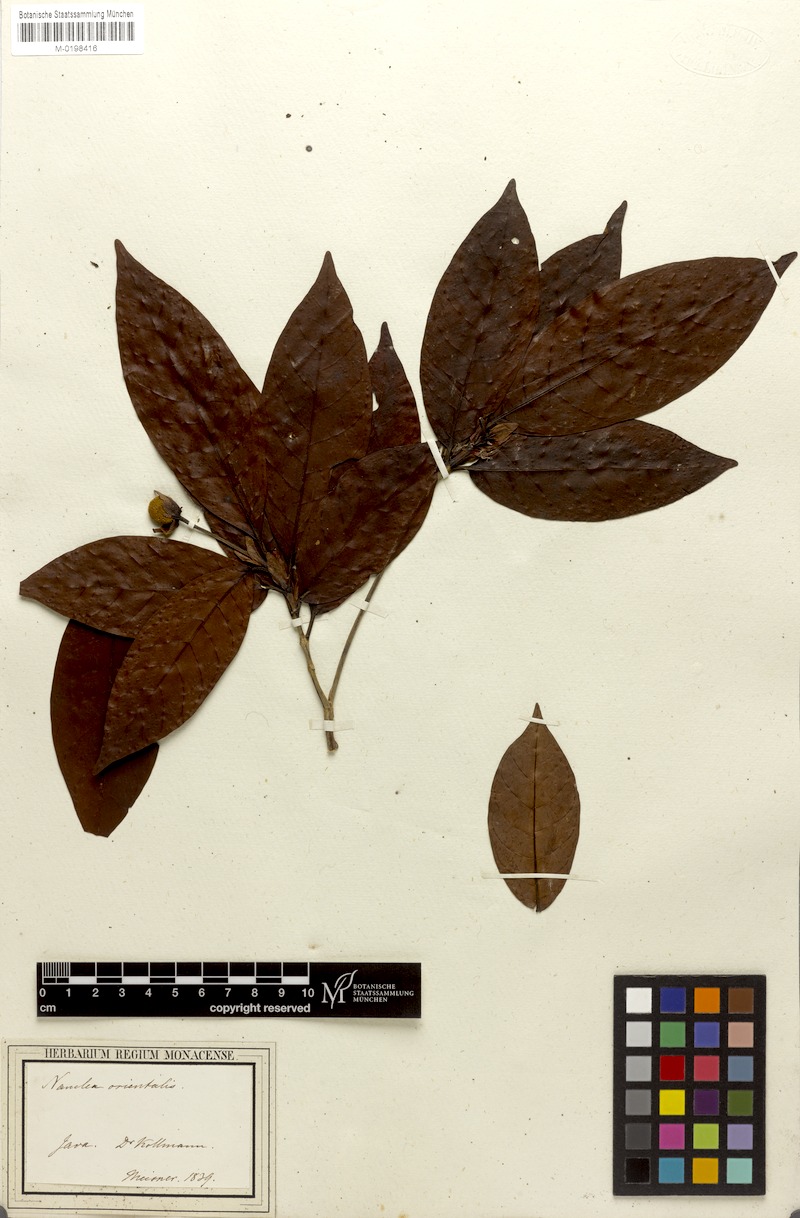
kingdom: Plantae
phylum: Tracheophyta
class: Magnoliopsida
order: Gentianales
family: Rubiaceae
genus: Neonauclea
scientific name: Neonauclea lanceolata
